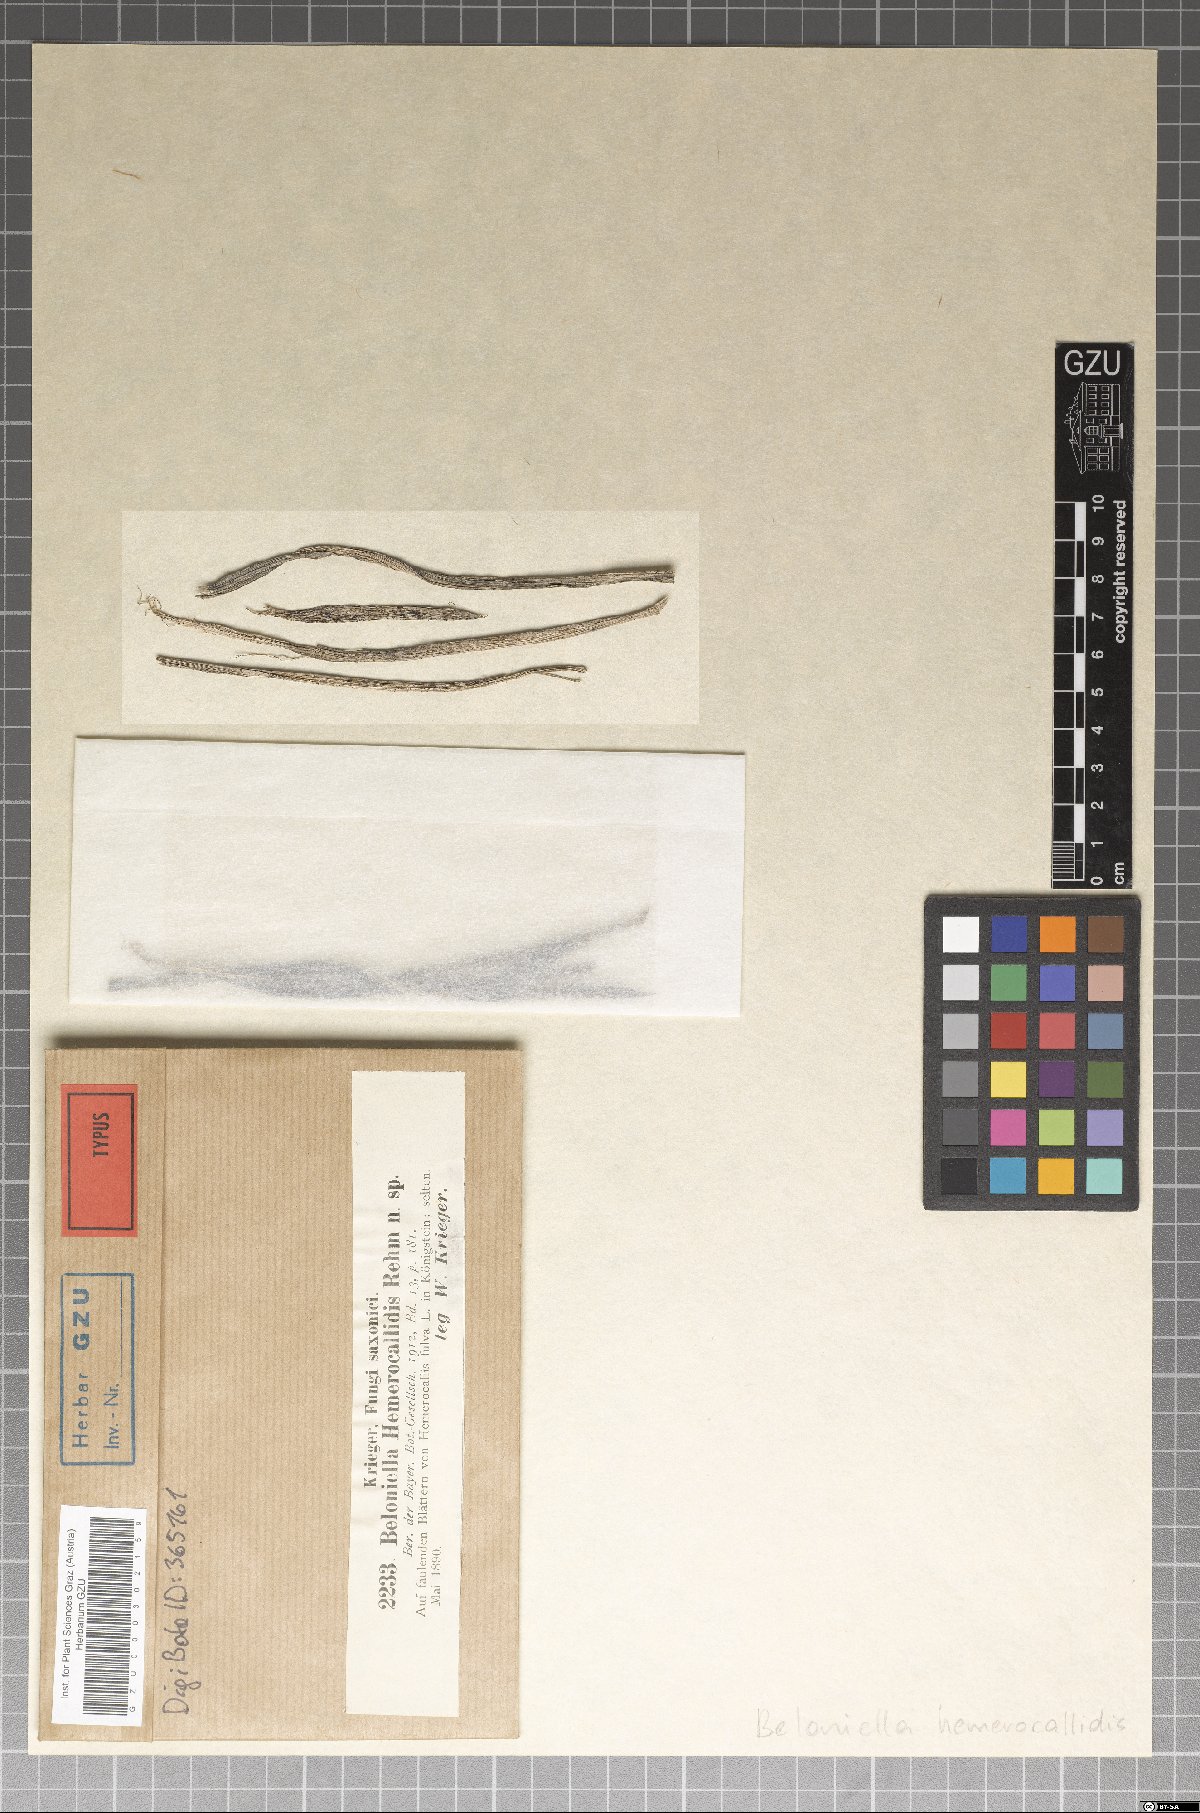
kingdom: Fungi
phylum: Ascomycota
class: Lecanoromycetes
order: Ostropales
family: Odontotremataceae
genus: Beloniella
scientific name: Beloniella
